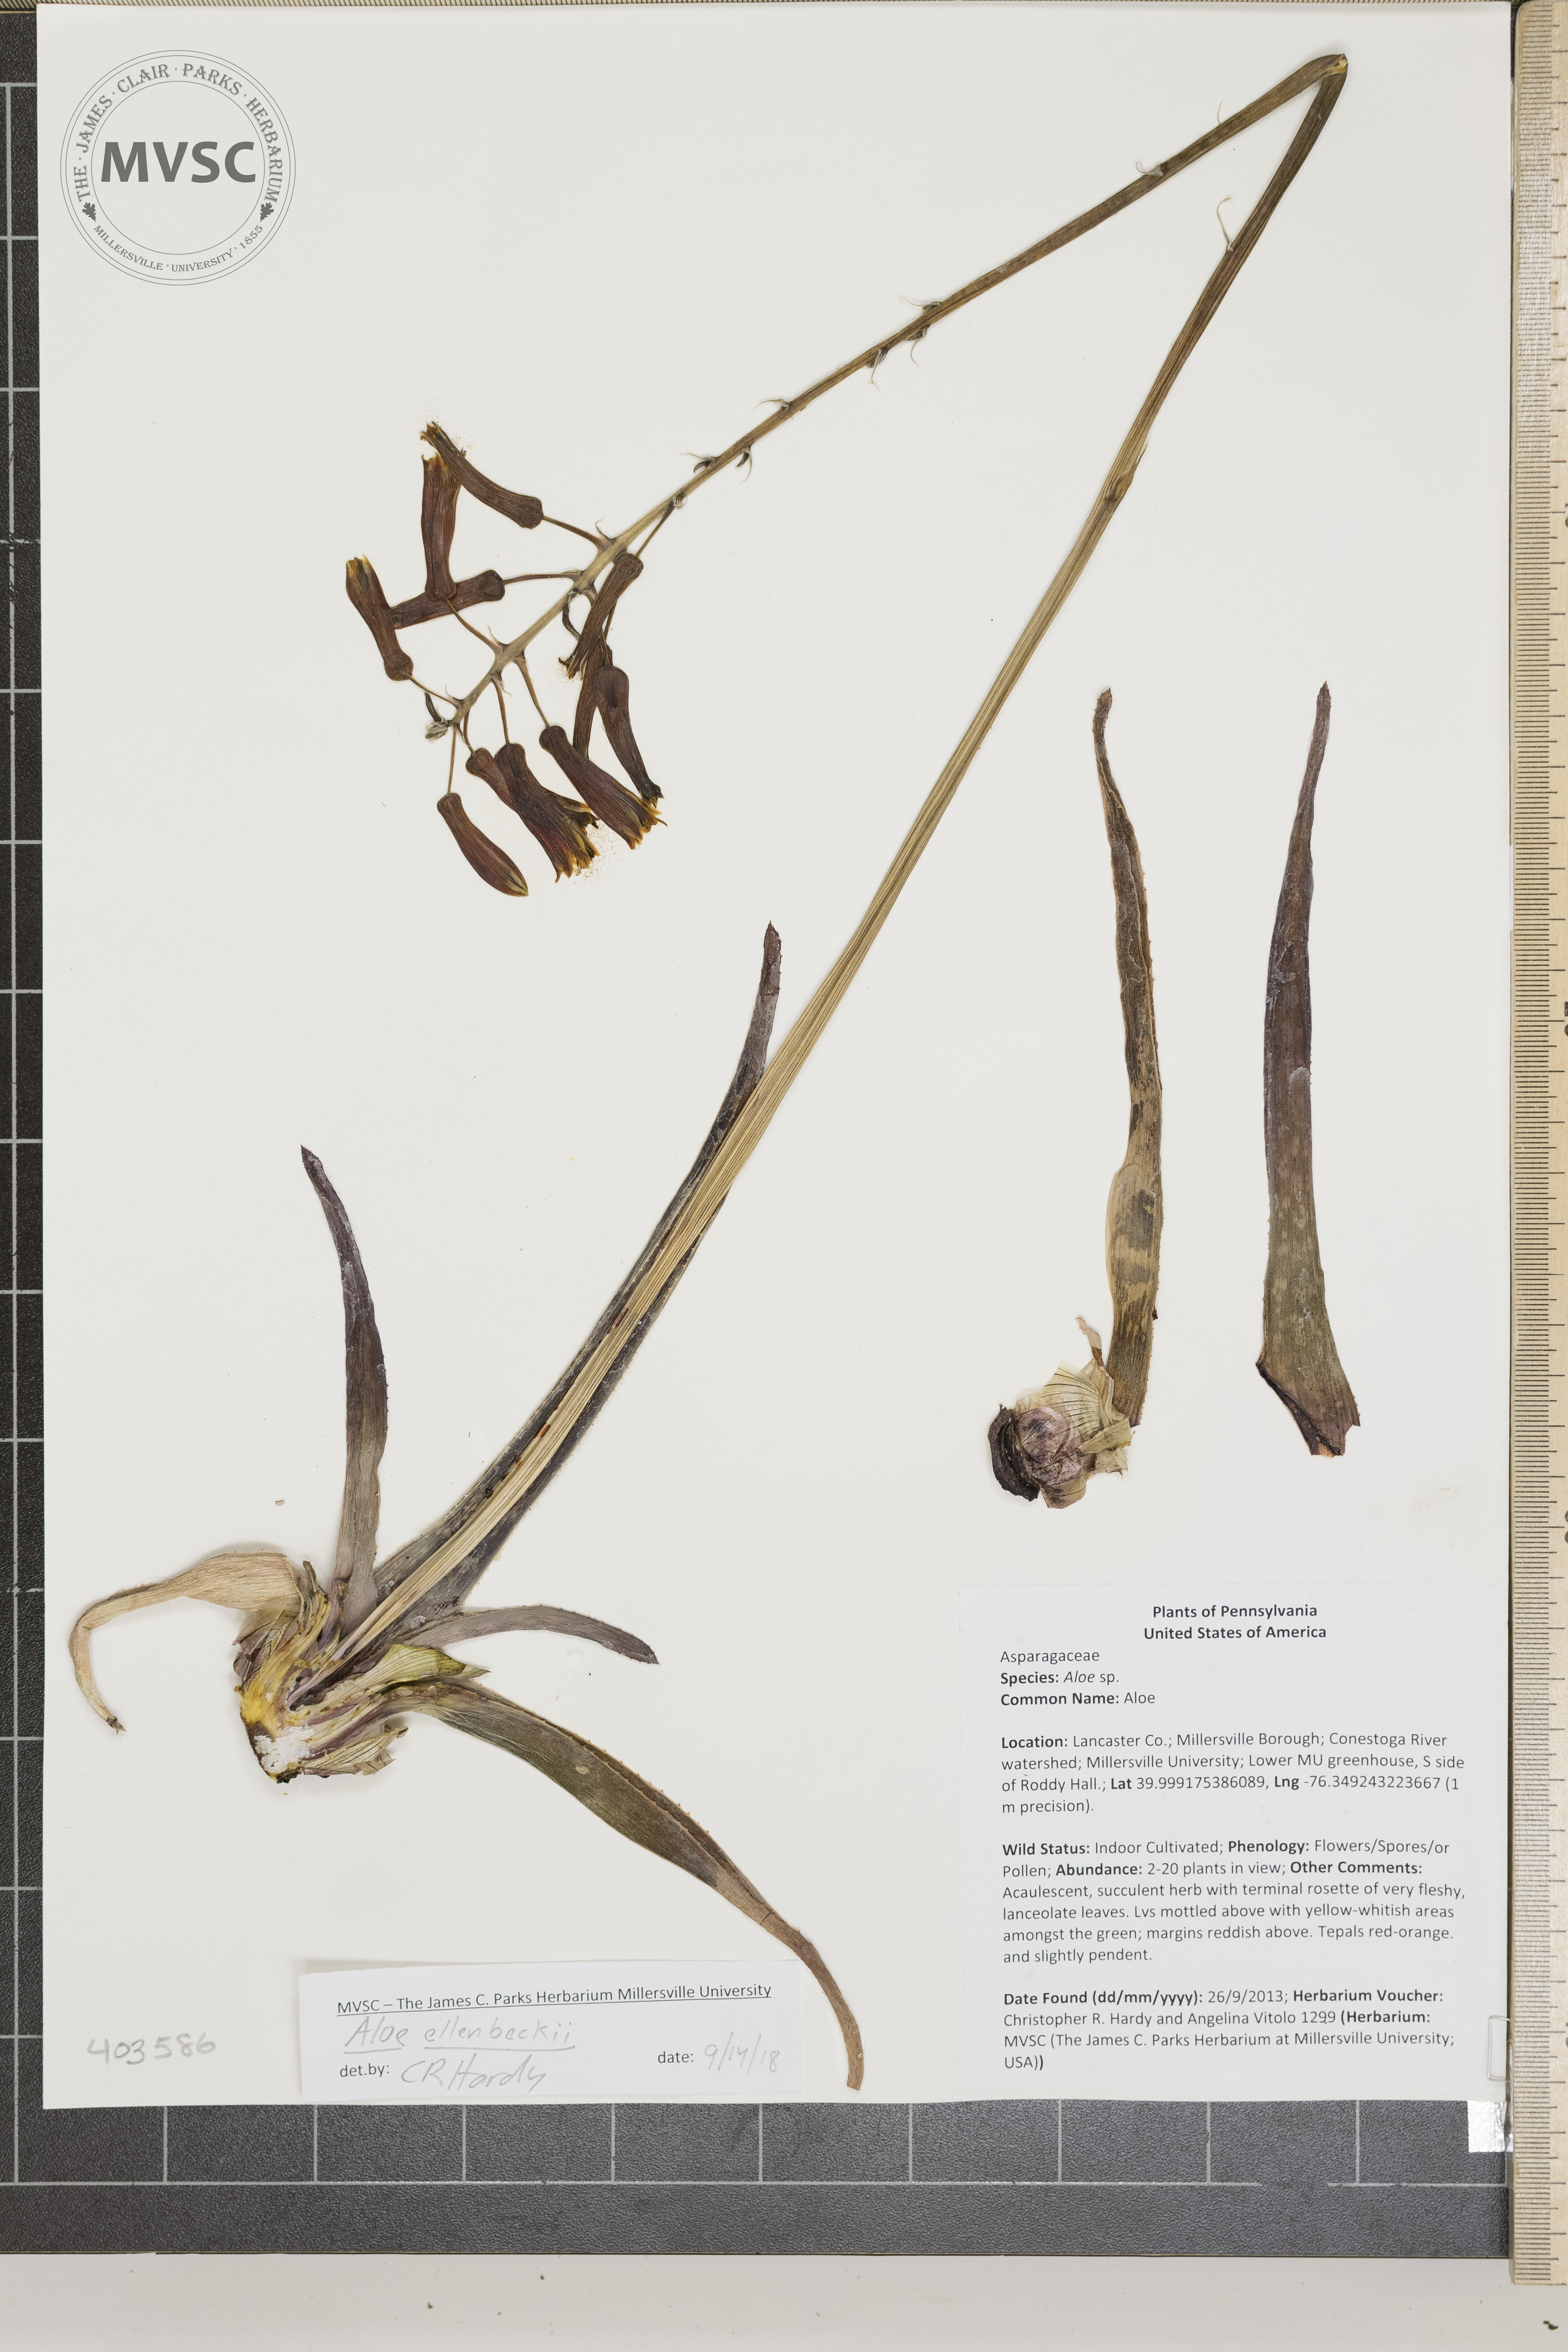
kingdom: Plantae
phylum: Tracheophyta
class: Liliopsida
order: Asparagales
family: Asphodelaceae
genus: Aloe
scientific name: Aloe ellenbeckii
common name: Aloe
